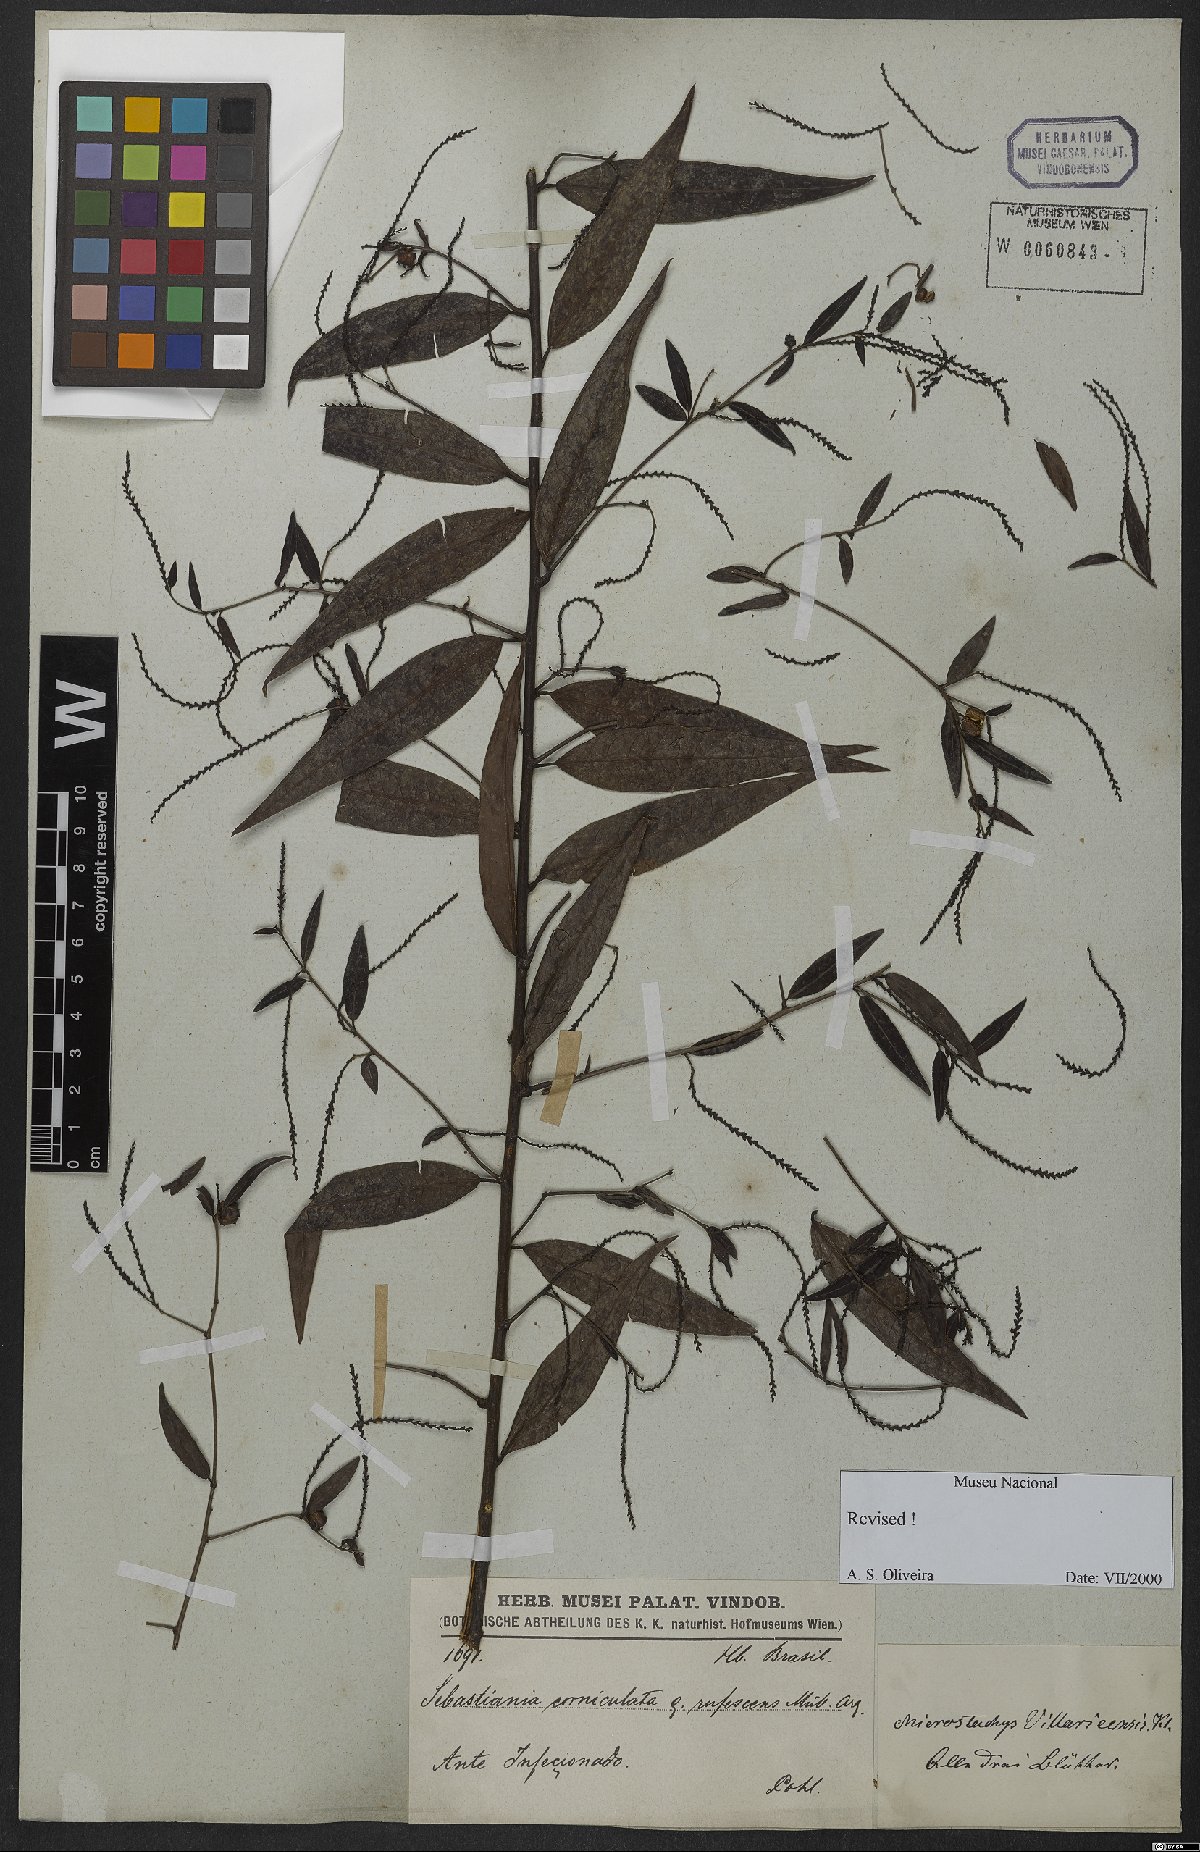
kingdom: Plantae
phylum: Tracheophyta
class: Magnoliopsida
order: Malpighiales
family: Euphorbiaceae
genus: Microstachys
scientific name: Microstachys hispida
